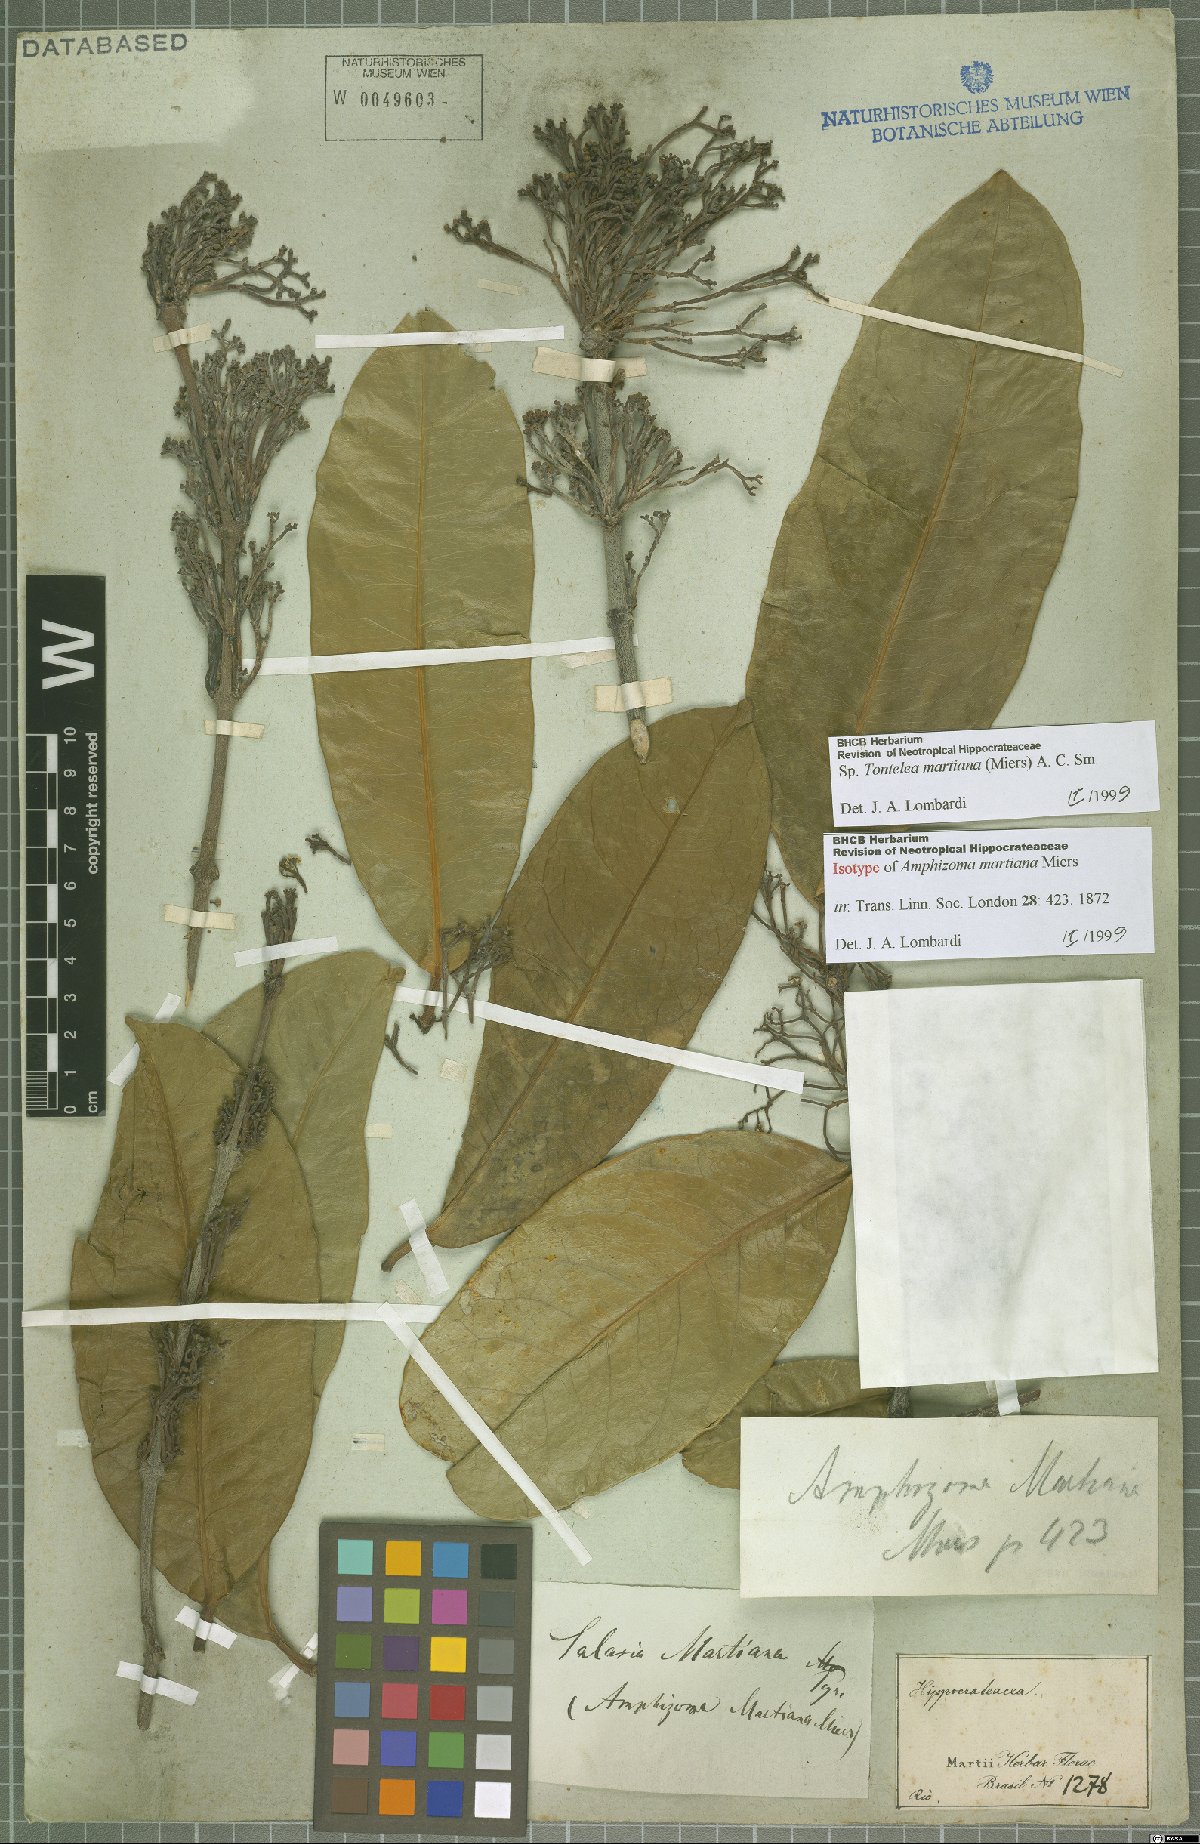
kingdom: Plantae
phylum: Tracheophyta
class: Magnoliopsida
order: Celastrales
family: Celastraceae
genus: Tontelea
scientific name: Tontelea martiana
